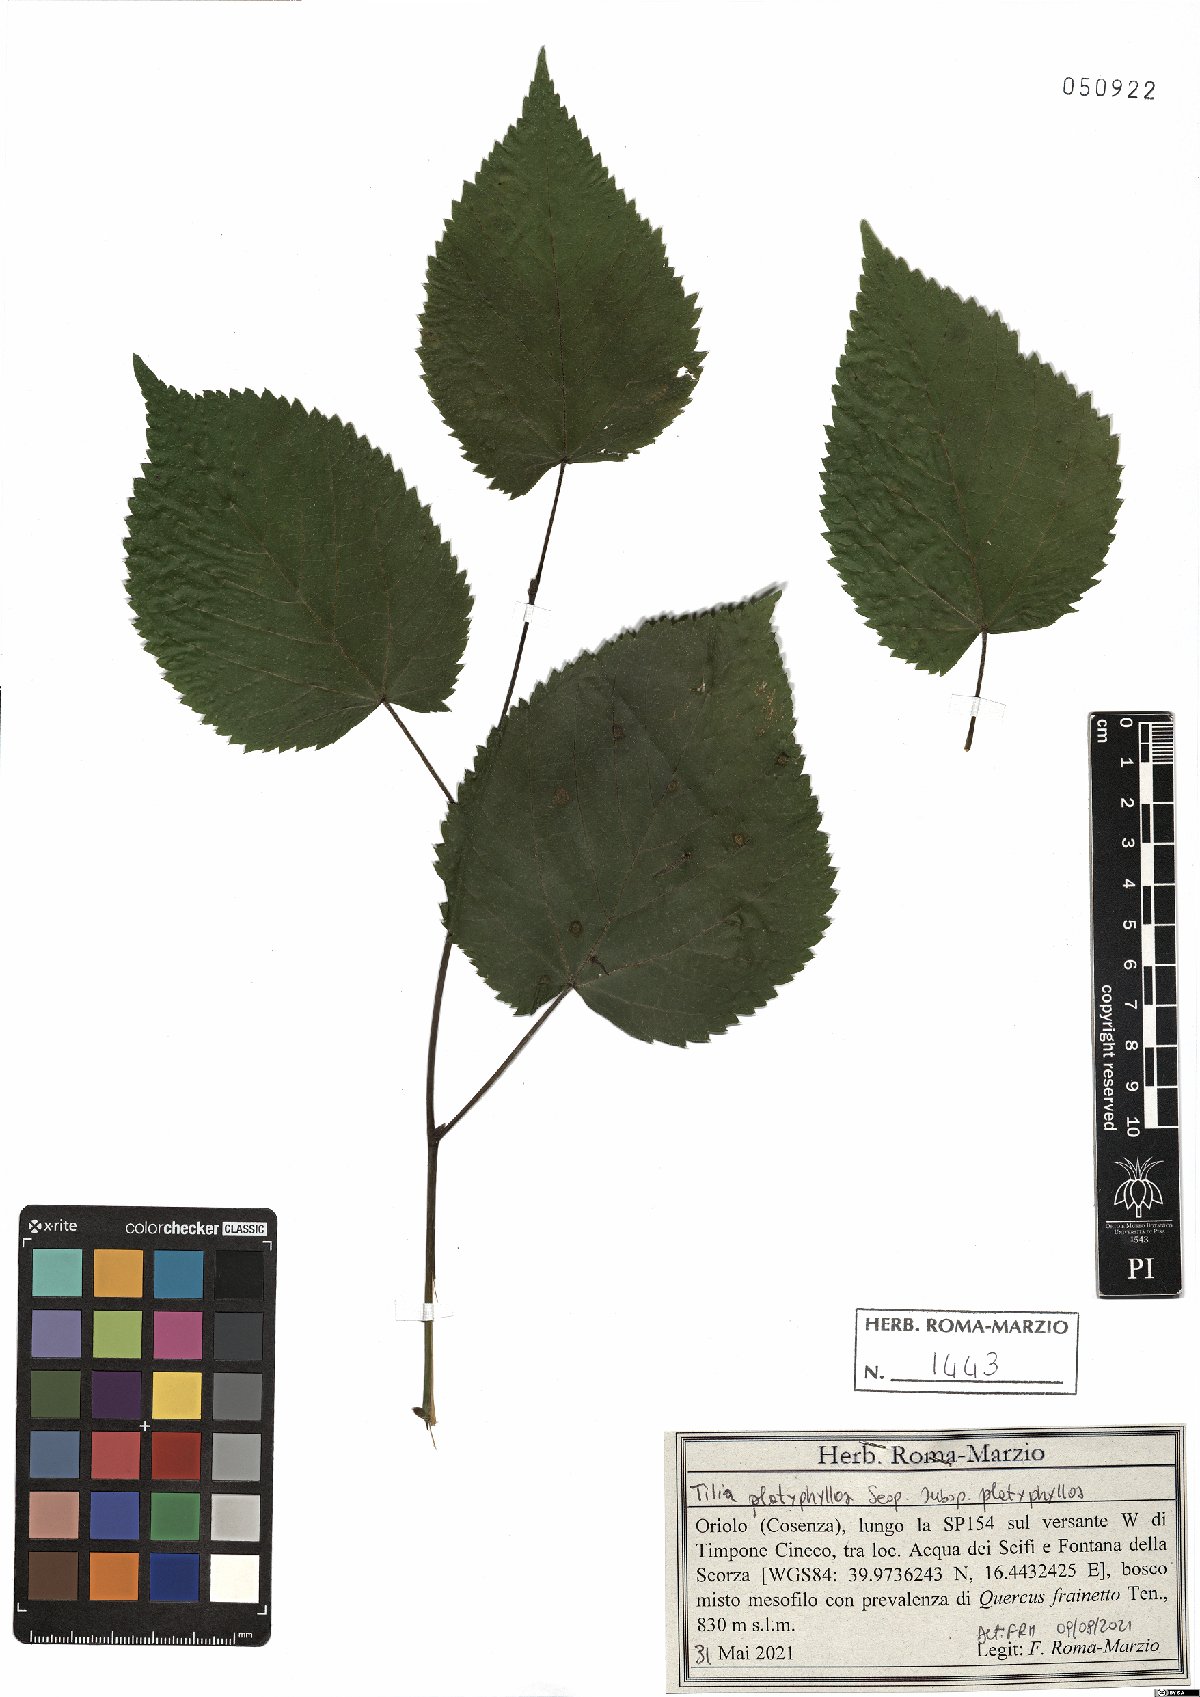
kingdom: Plantae
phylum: Tracheophyta
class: Magnoliopsida
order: Malvales
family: Malvaceae
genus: Tilia
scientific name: Tilia platyphyllos
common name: Large-leaved lime
